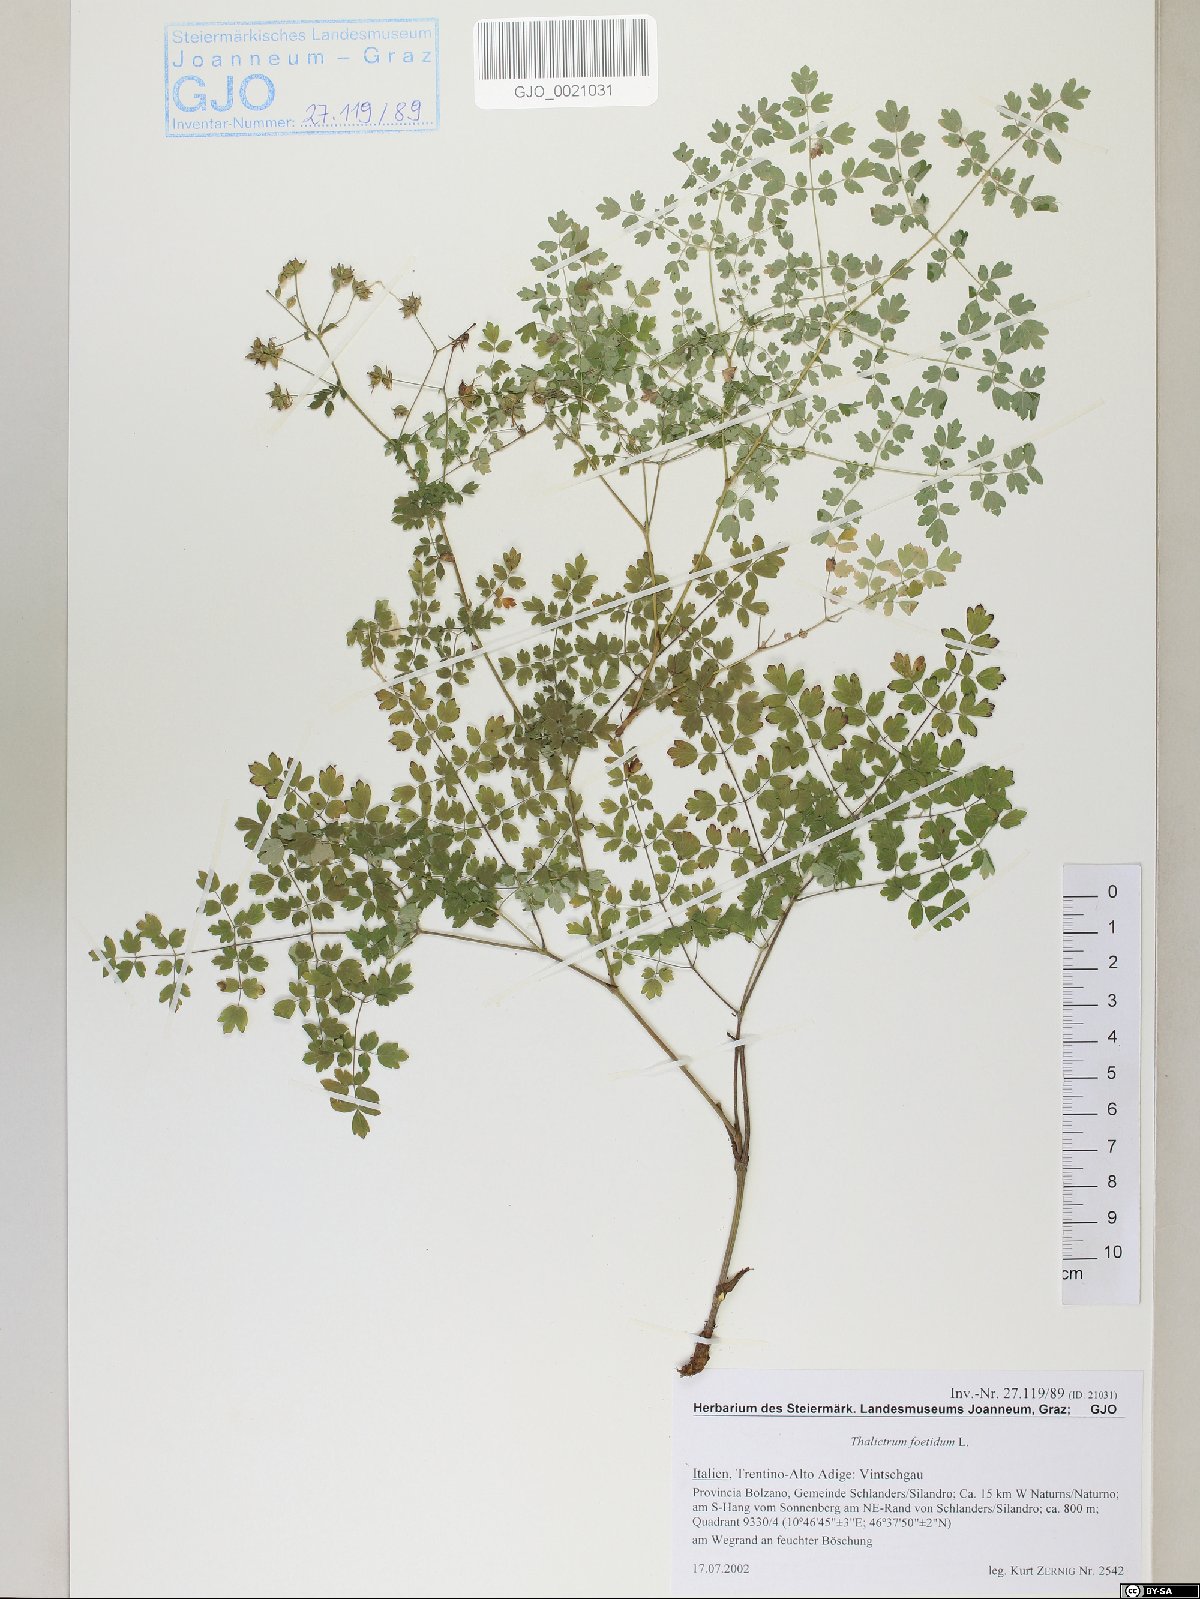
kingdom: Plantae
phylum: Tracheophyta
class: Magnoliopsida
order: Ranunculales
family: Ranunculaceae
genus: Thalictrum
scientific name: Thalictrum foetidum
